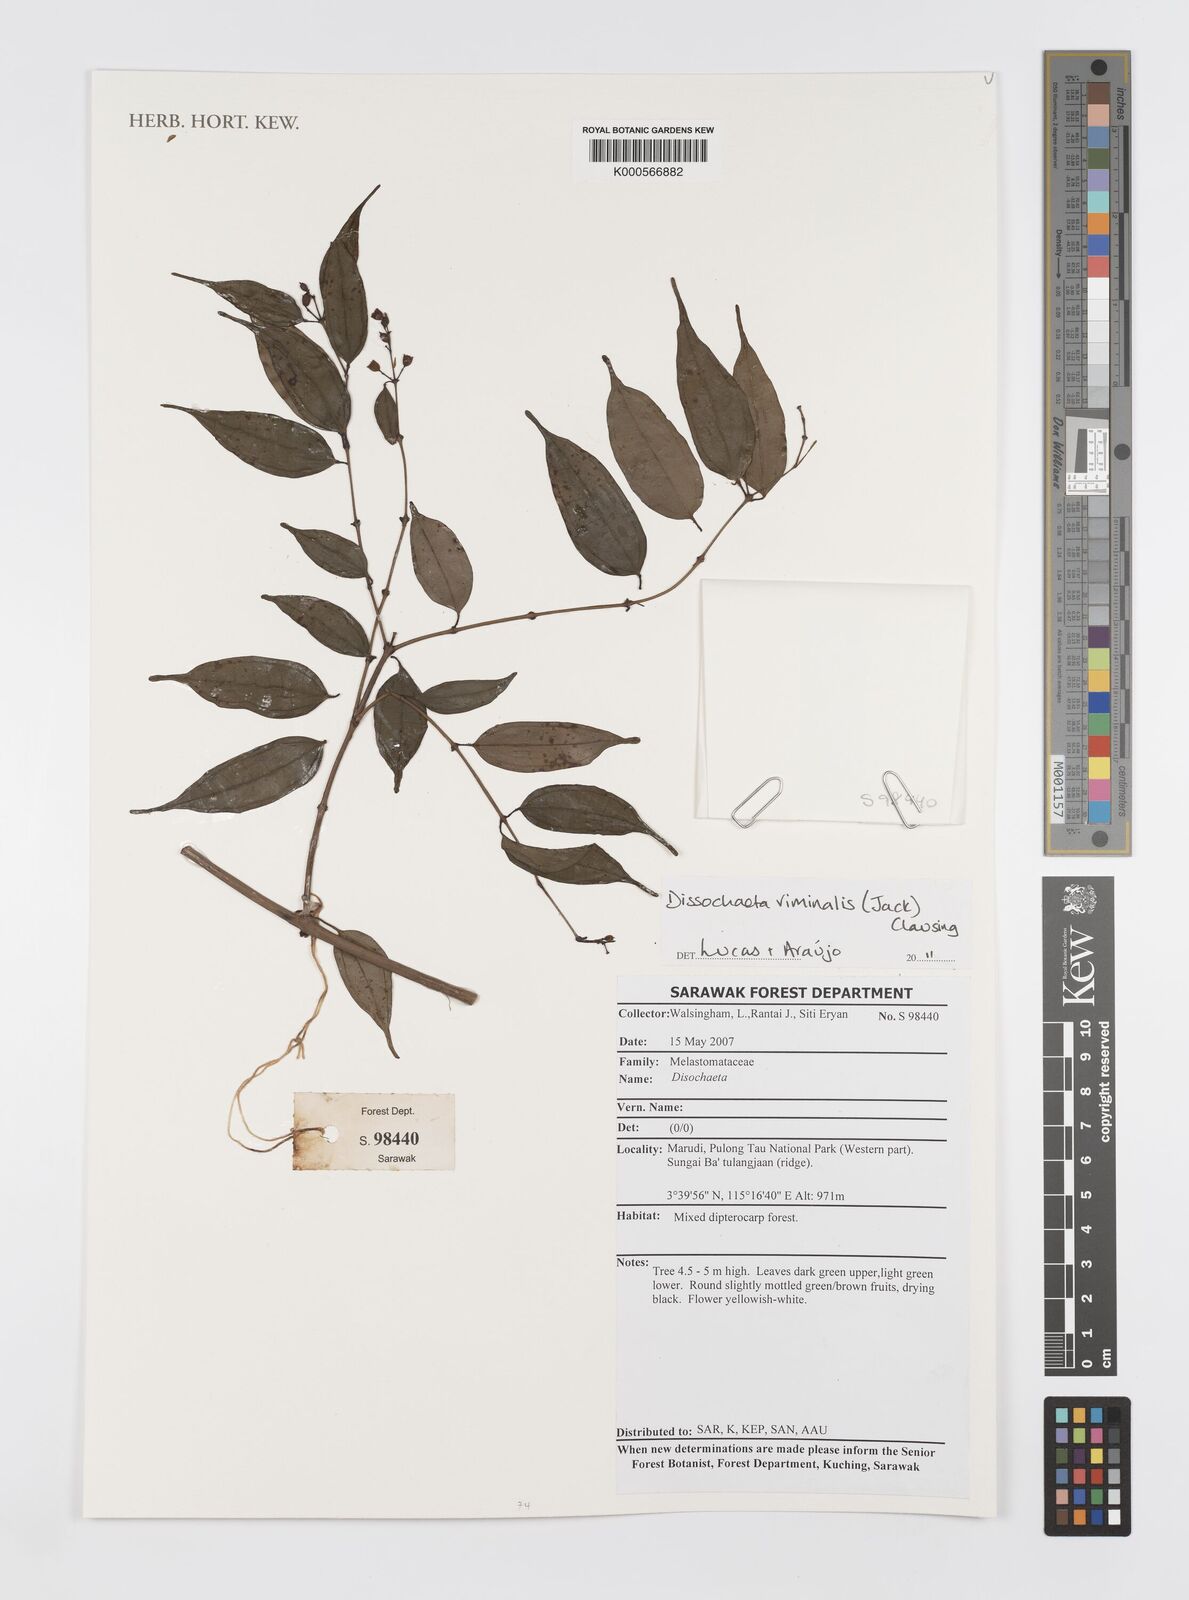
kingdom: Plantae
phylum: Tracheophyta
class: Magnoliopsida
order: Myrtales
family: Melastomataceae
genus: Diplectria
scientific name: Diplectria viminalis
